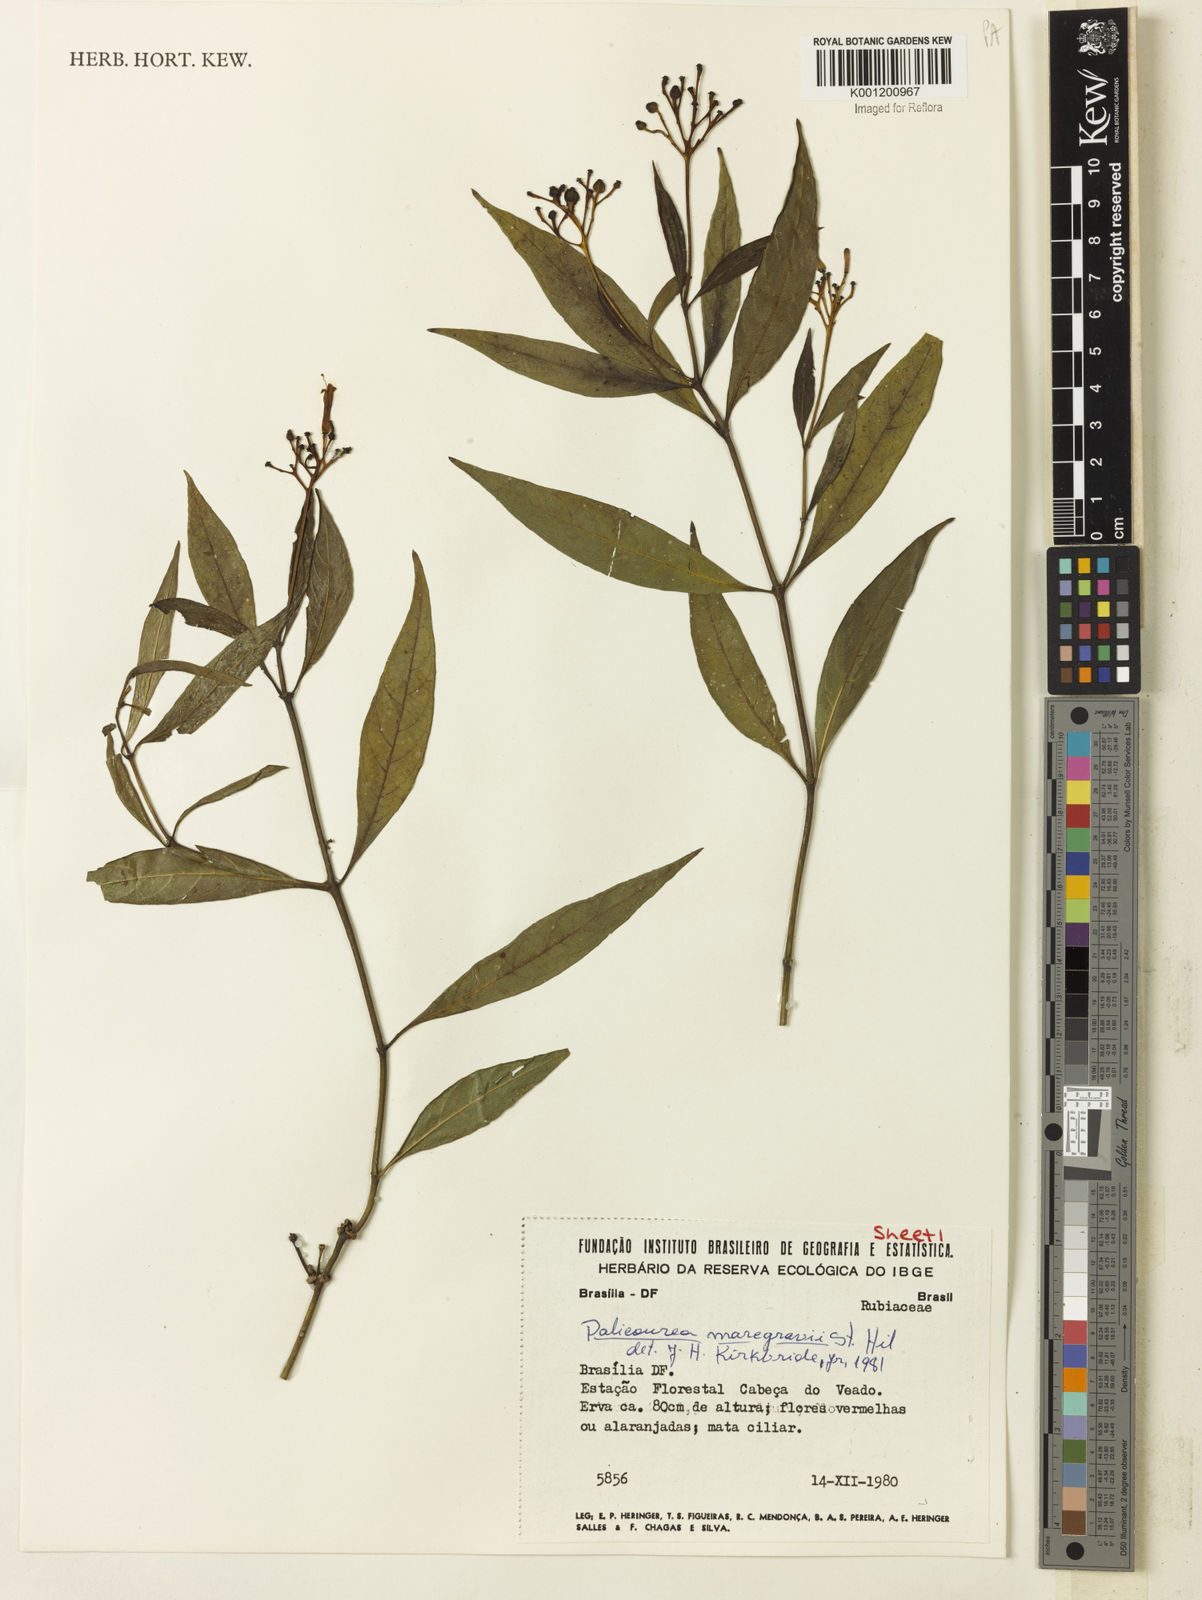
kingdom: Plantae
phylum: Tracheophyta
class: Magnoliopsida
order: Gentianales
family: Rubiaceae
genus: Palicourea
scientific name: Palicourea marcgravii
